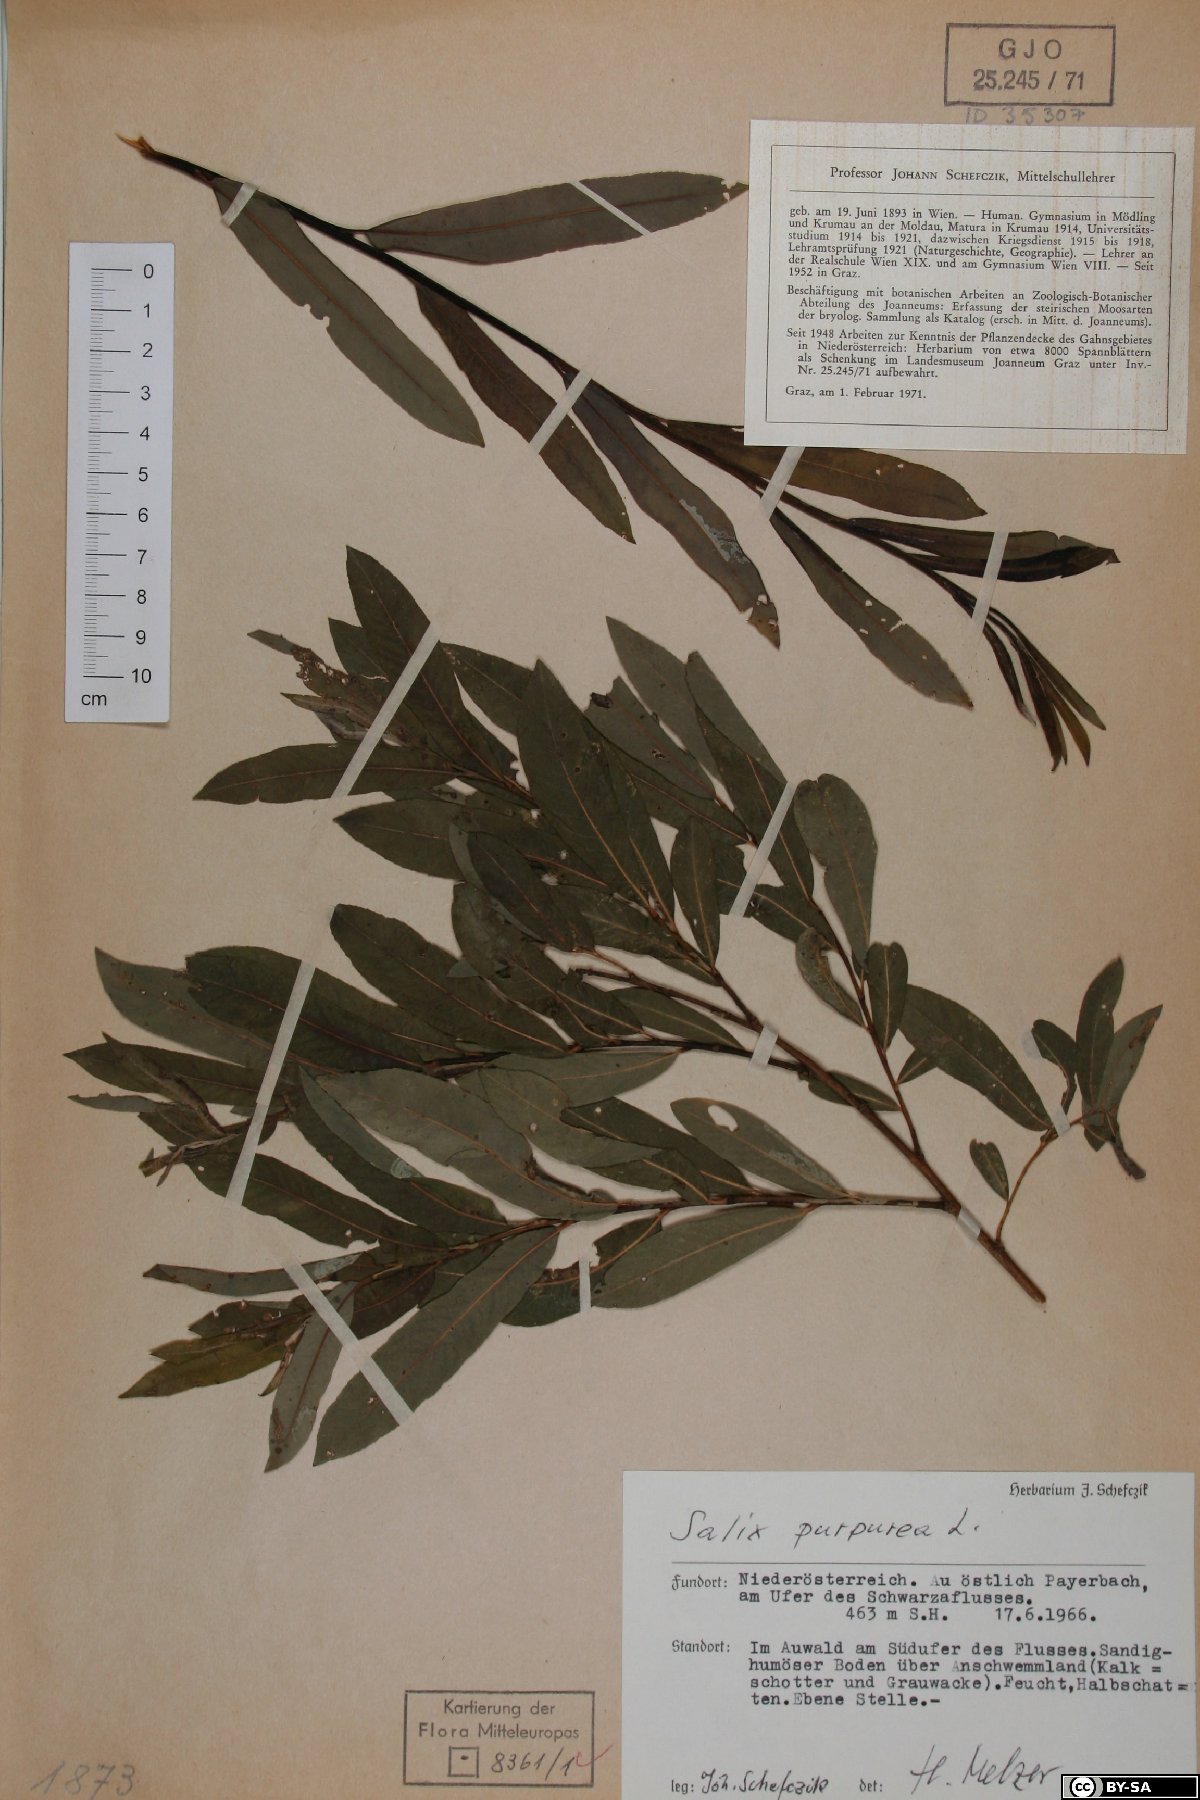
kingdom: Plantae
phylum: Tracheophyta
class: Magnoliopsida
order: Malpighiales
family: Salicaceae
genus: Salix
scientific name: Salix purpurea
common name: Purple willow
